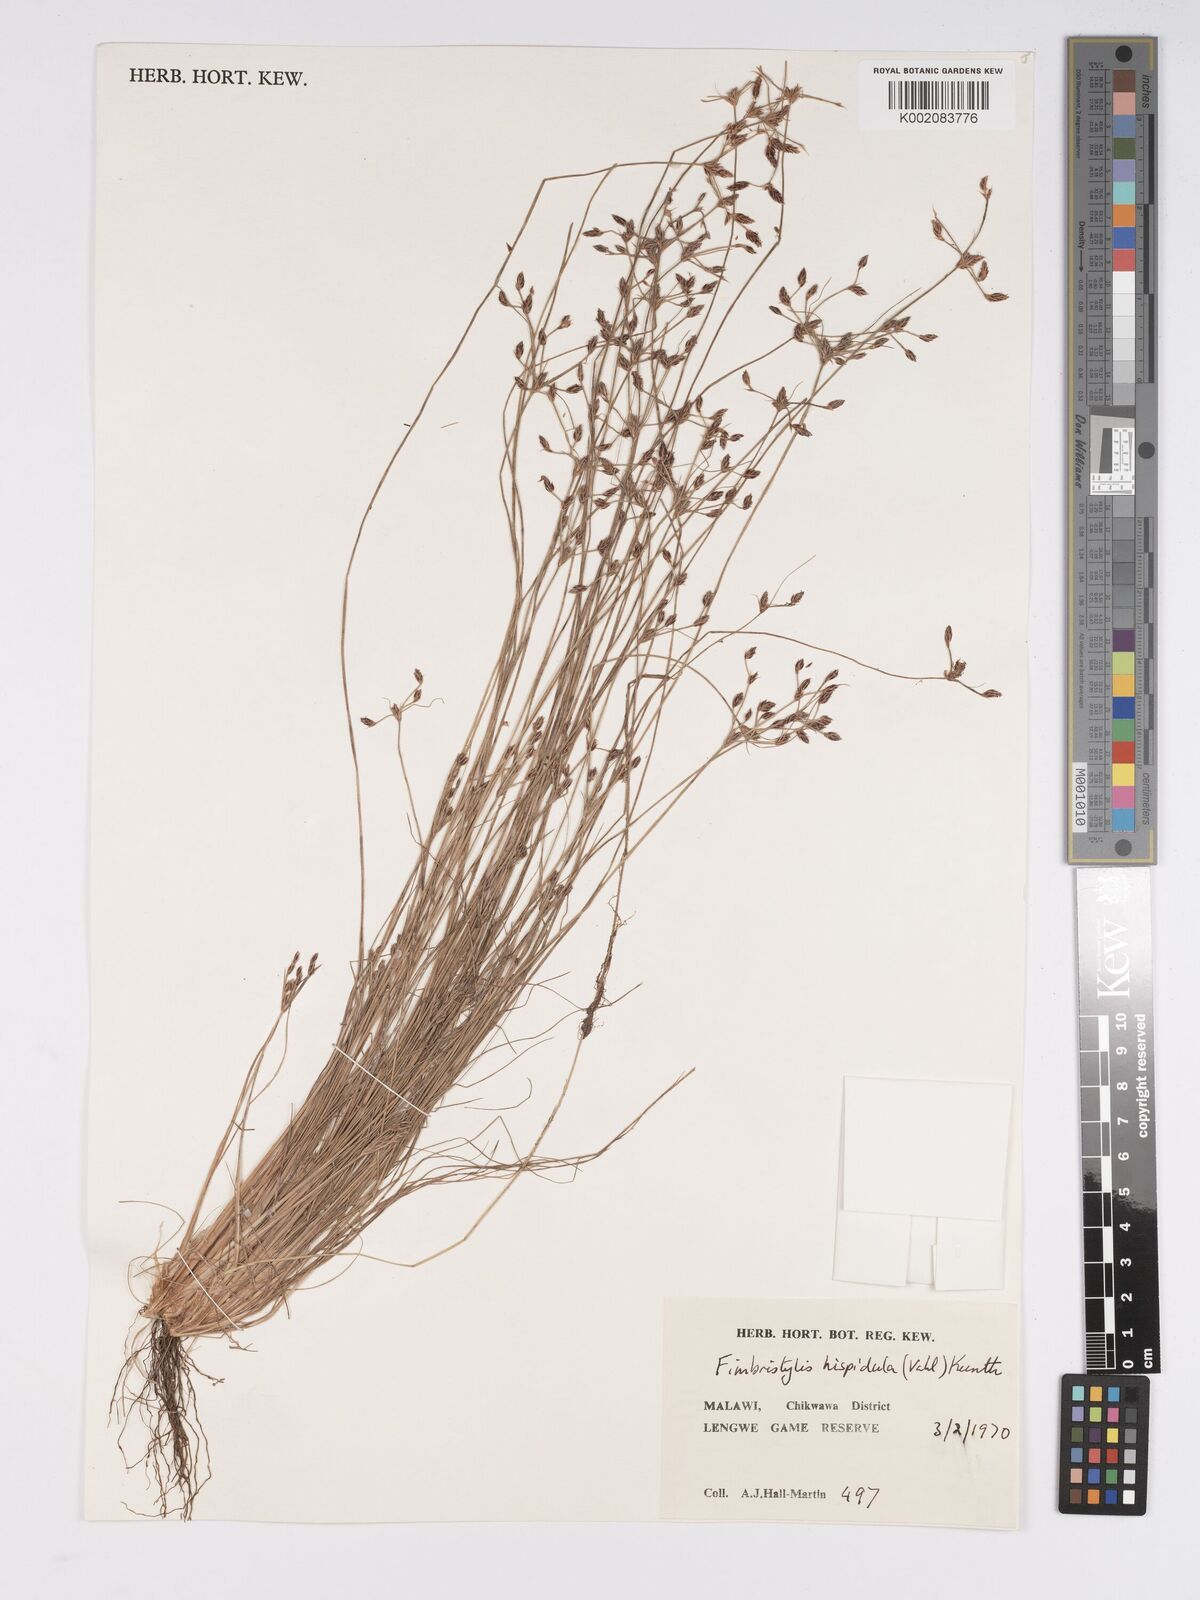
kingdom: Plantae
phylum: Tracheophyta
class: Liliopsida
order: Poales
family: Cyperaceae
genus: Bulbostylis
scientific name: Bulbostylis hispidula
